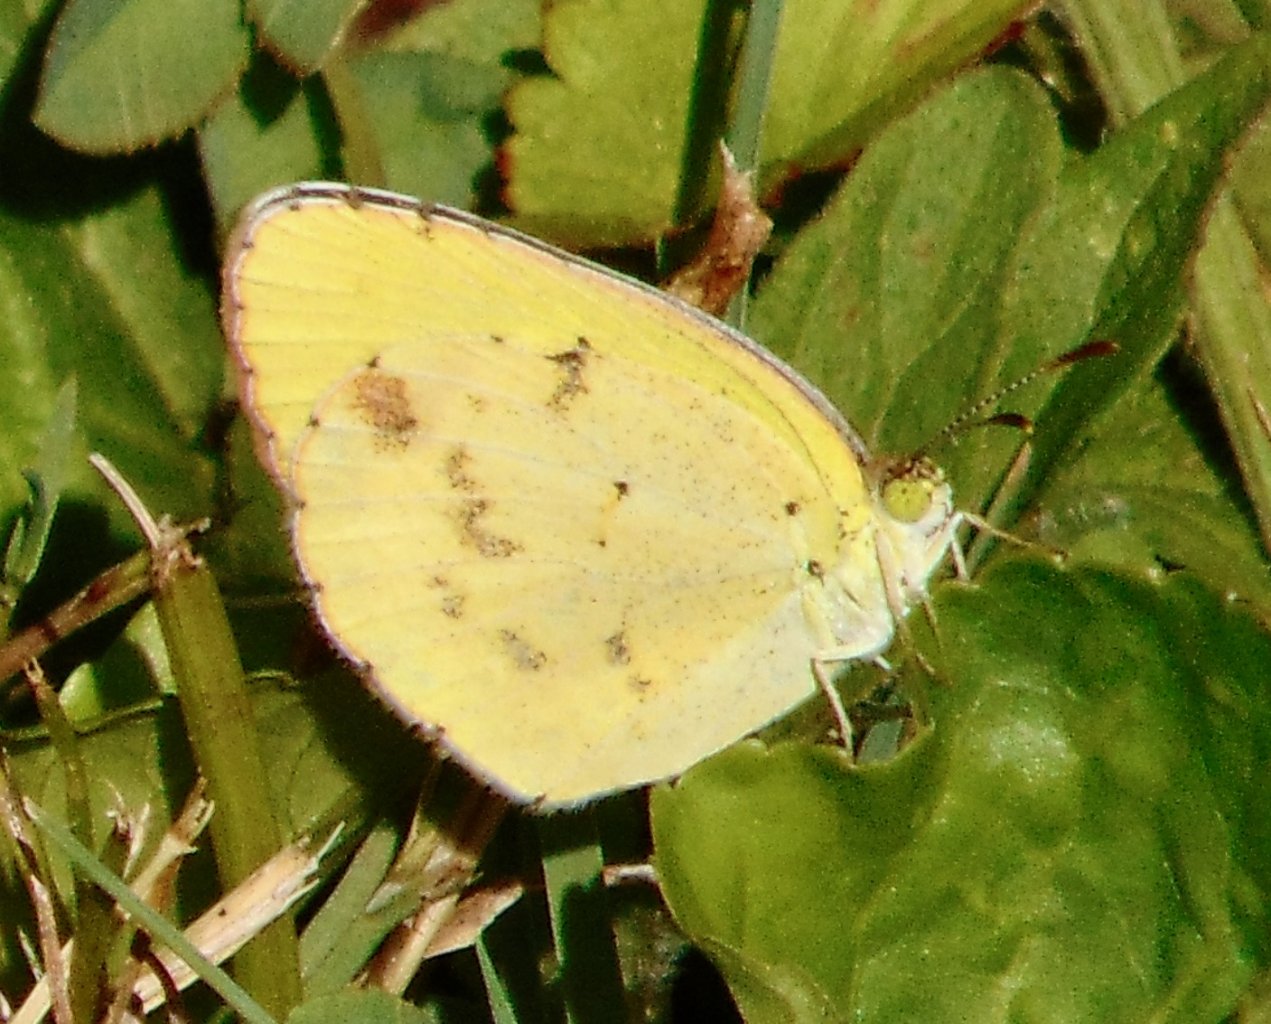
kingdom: Animalia
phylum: Arthropoda
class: Insecta
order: Lepidoptera
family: Pieridae
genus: Pyrisitia
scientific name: Pyrisitia lisa
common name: Little Yellow
